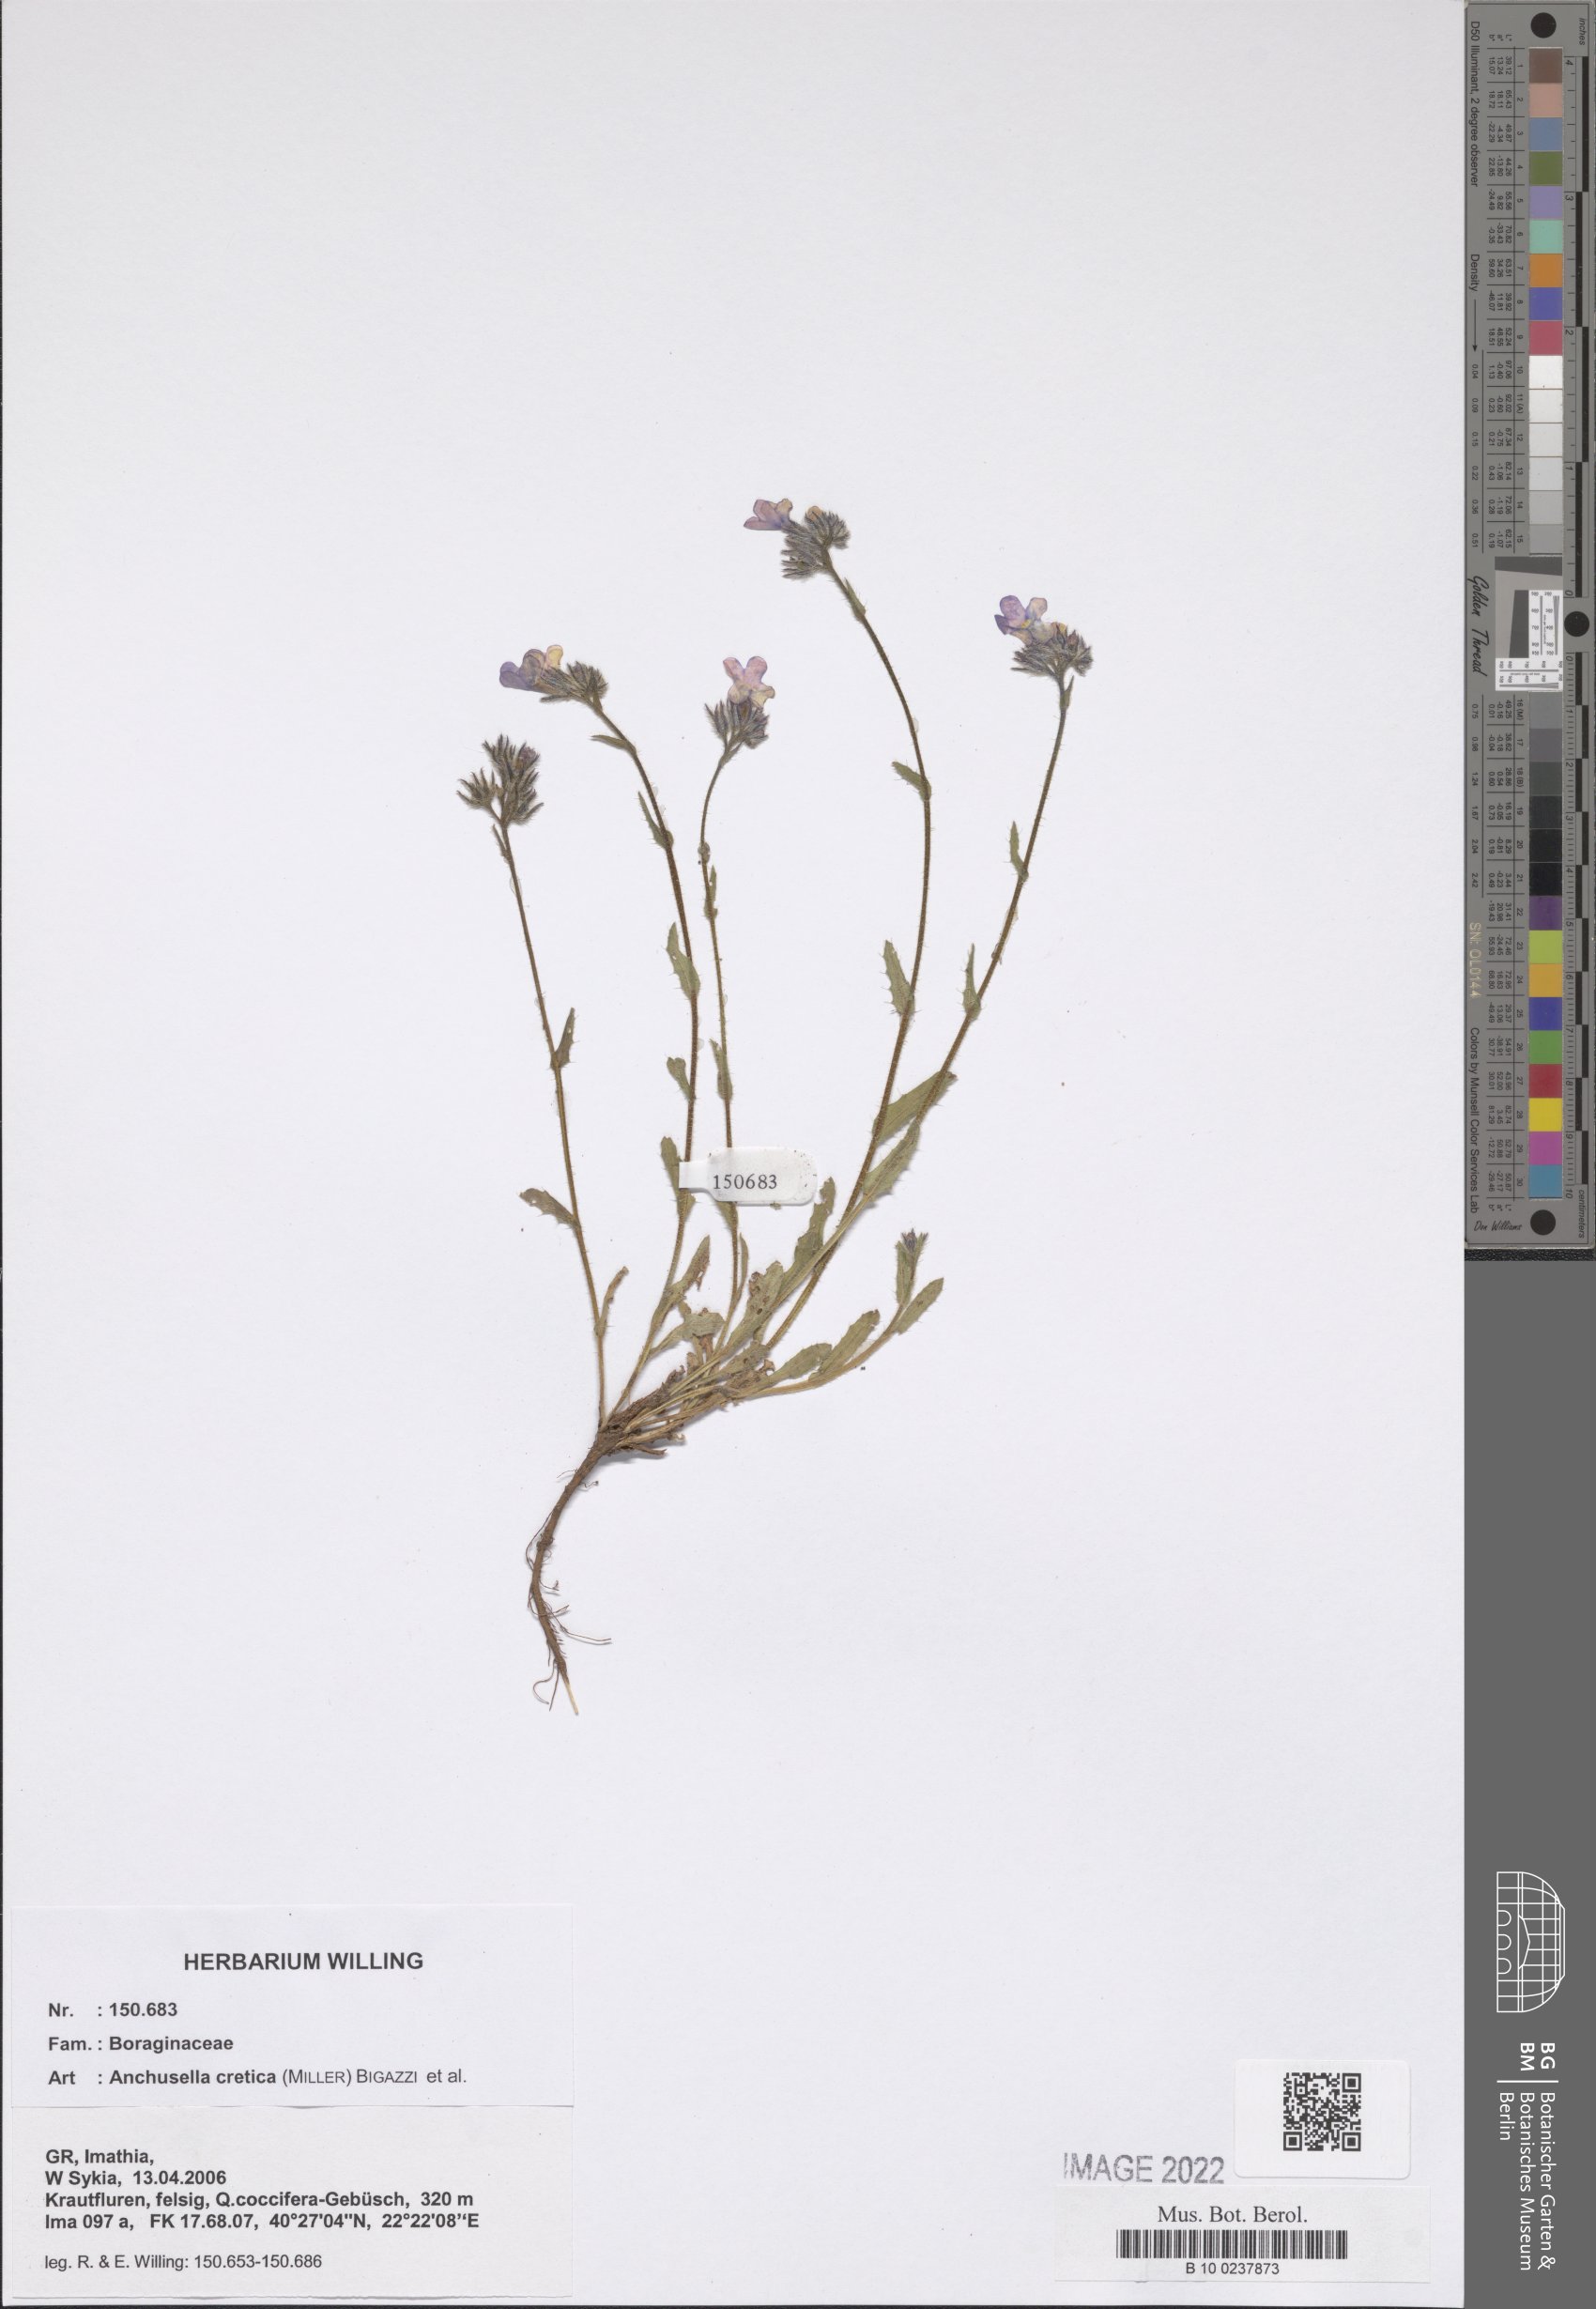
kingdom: Plantae
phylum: Tracheophyta
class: Magnoliopsida
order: Boraginales
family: Boraginaceae
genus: Lycopsis
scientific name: Lycopsis arvensis
